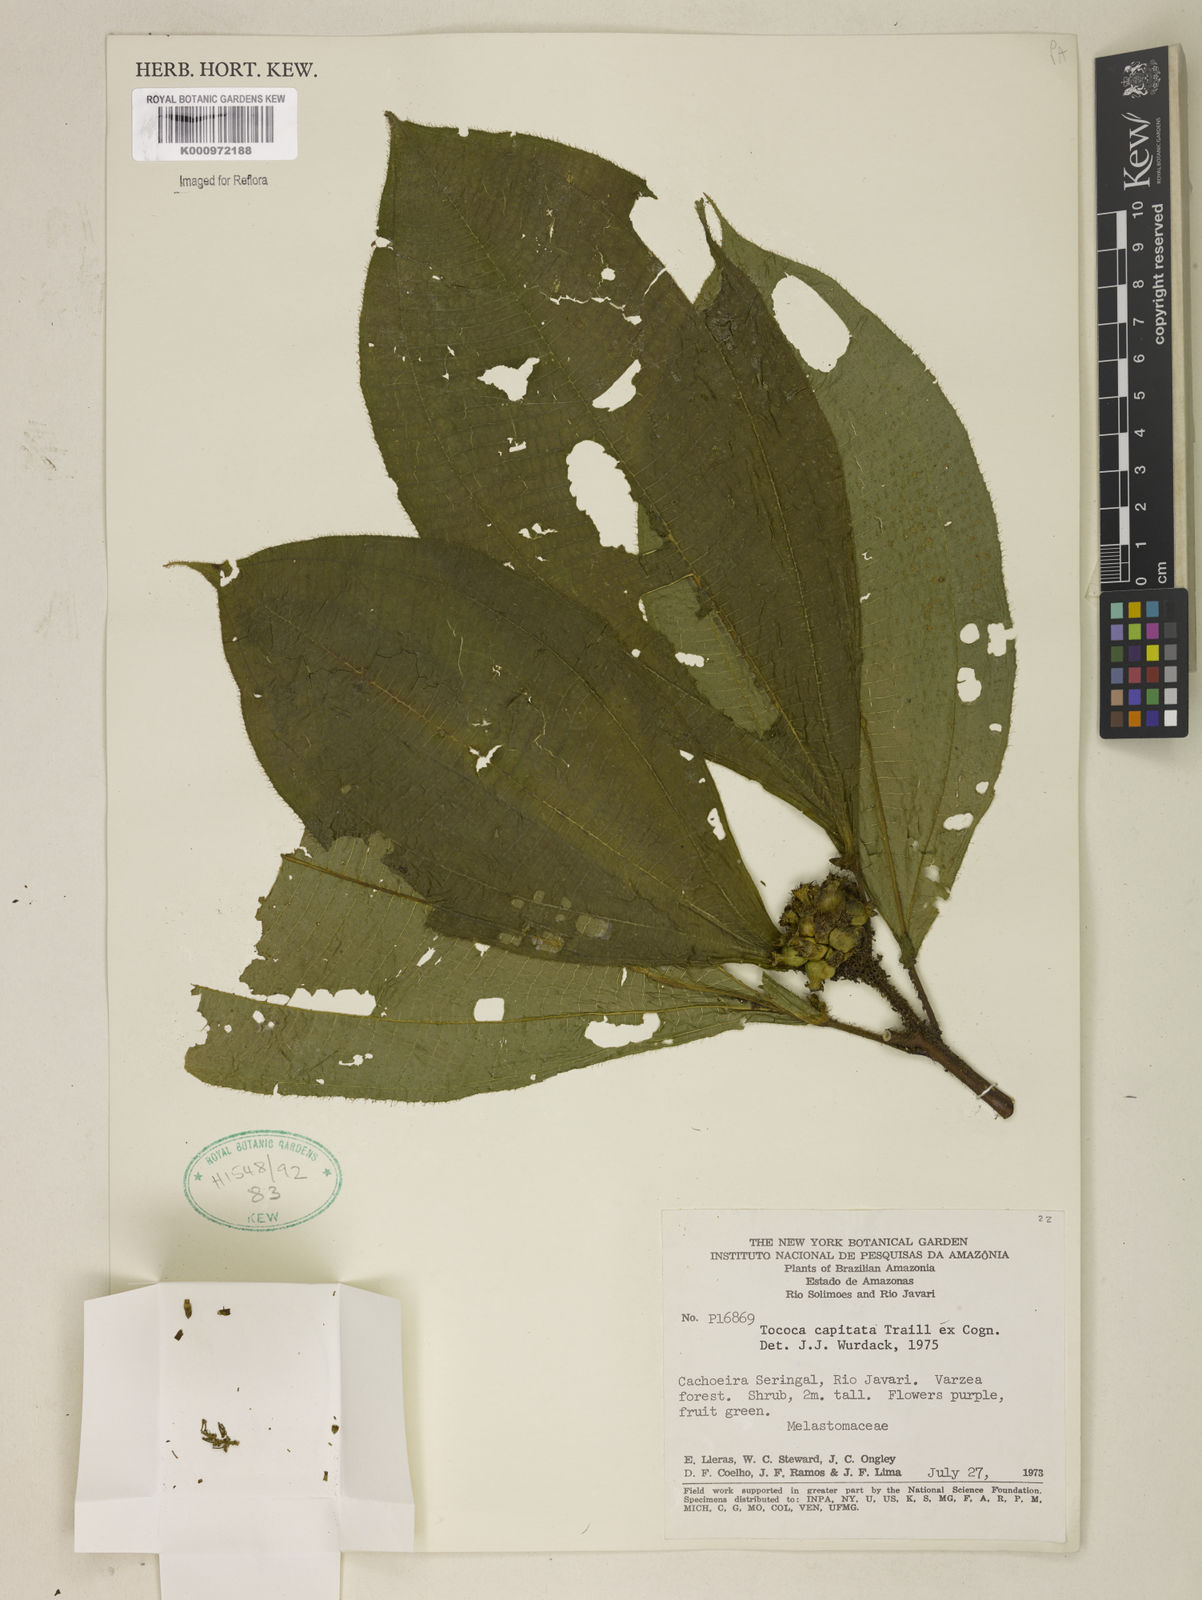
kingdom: Plantae
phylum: Tracheophyta
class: Magnoliopsida
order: Myrtales
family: Melastomataceae
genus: Miconia
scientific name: Miconia
